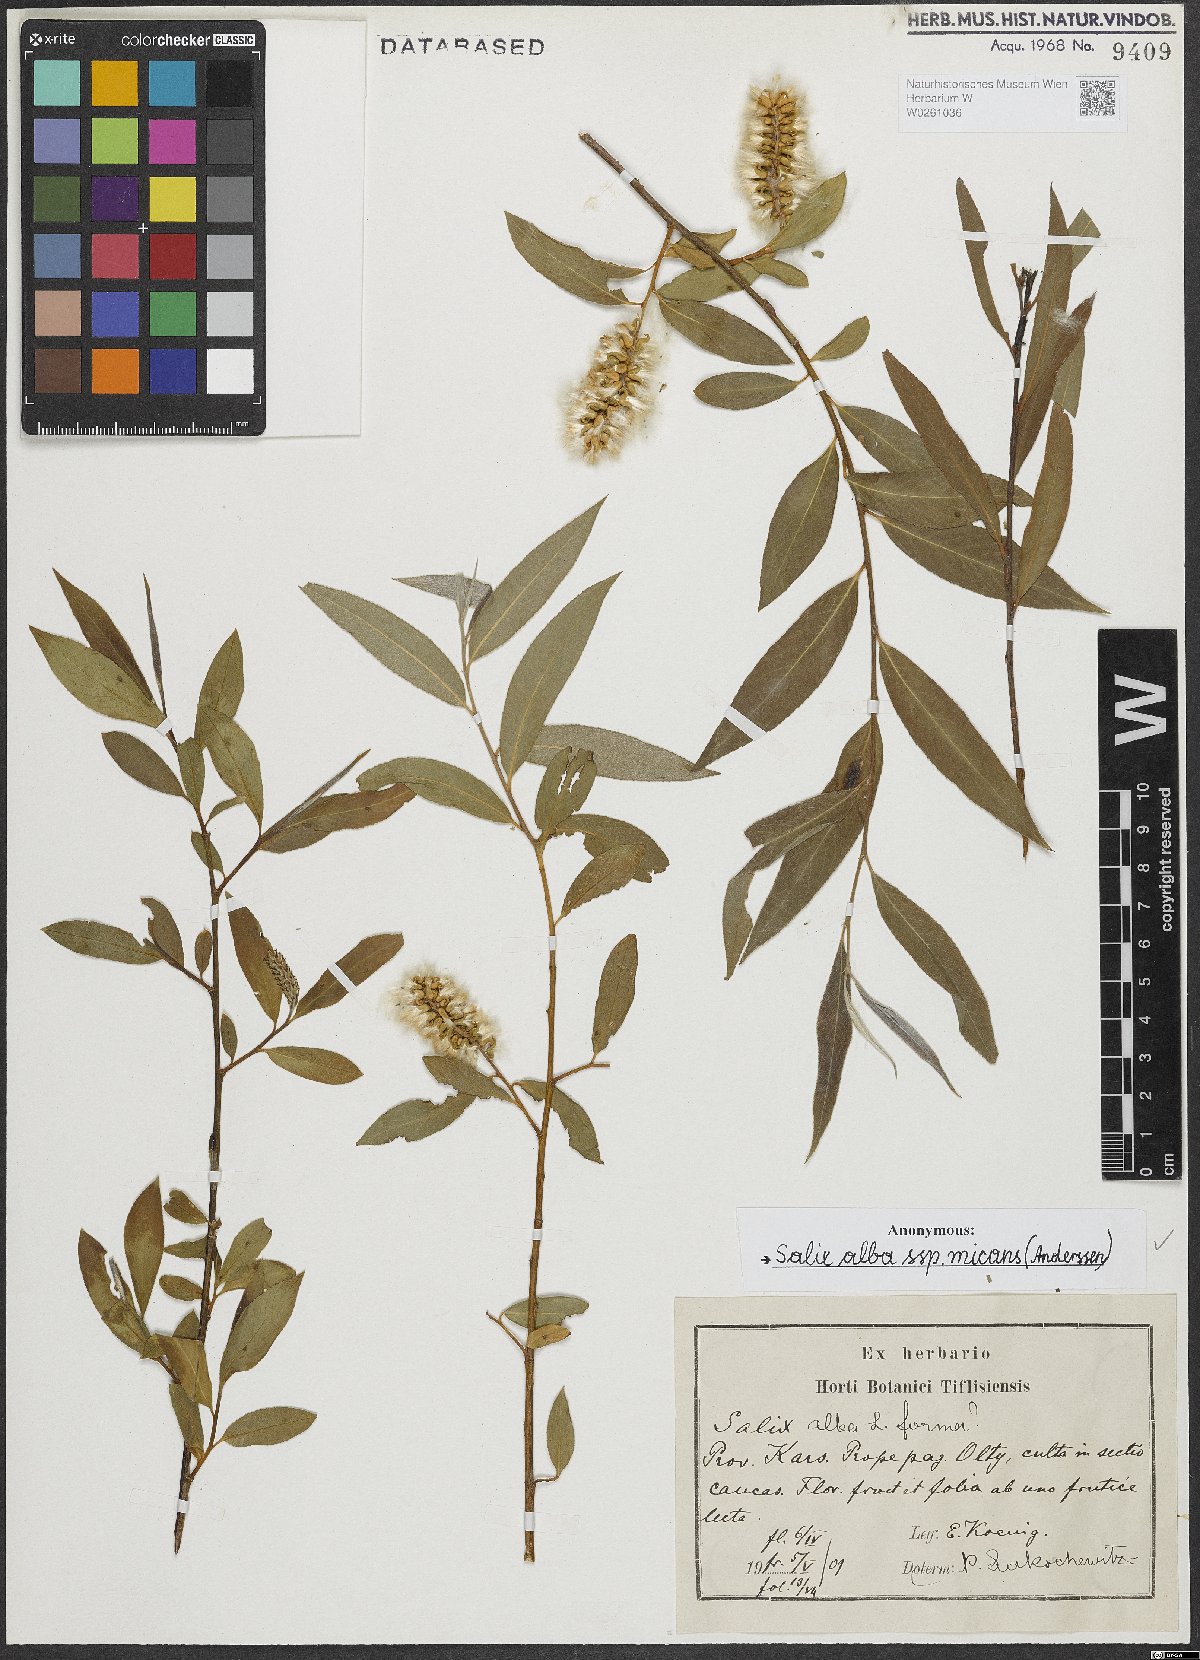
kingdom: Plantae
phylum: Tracheophyta
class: Magnoliopsida
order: Malpighiales
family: Salicaceae
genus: Salix
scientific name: Salix alba
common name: White willow
